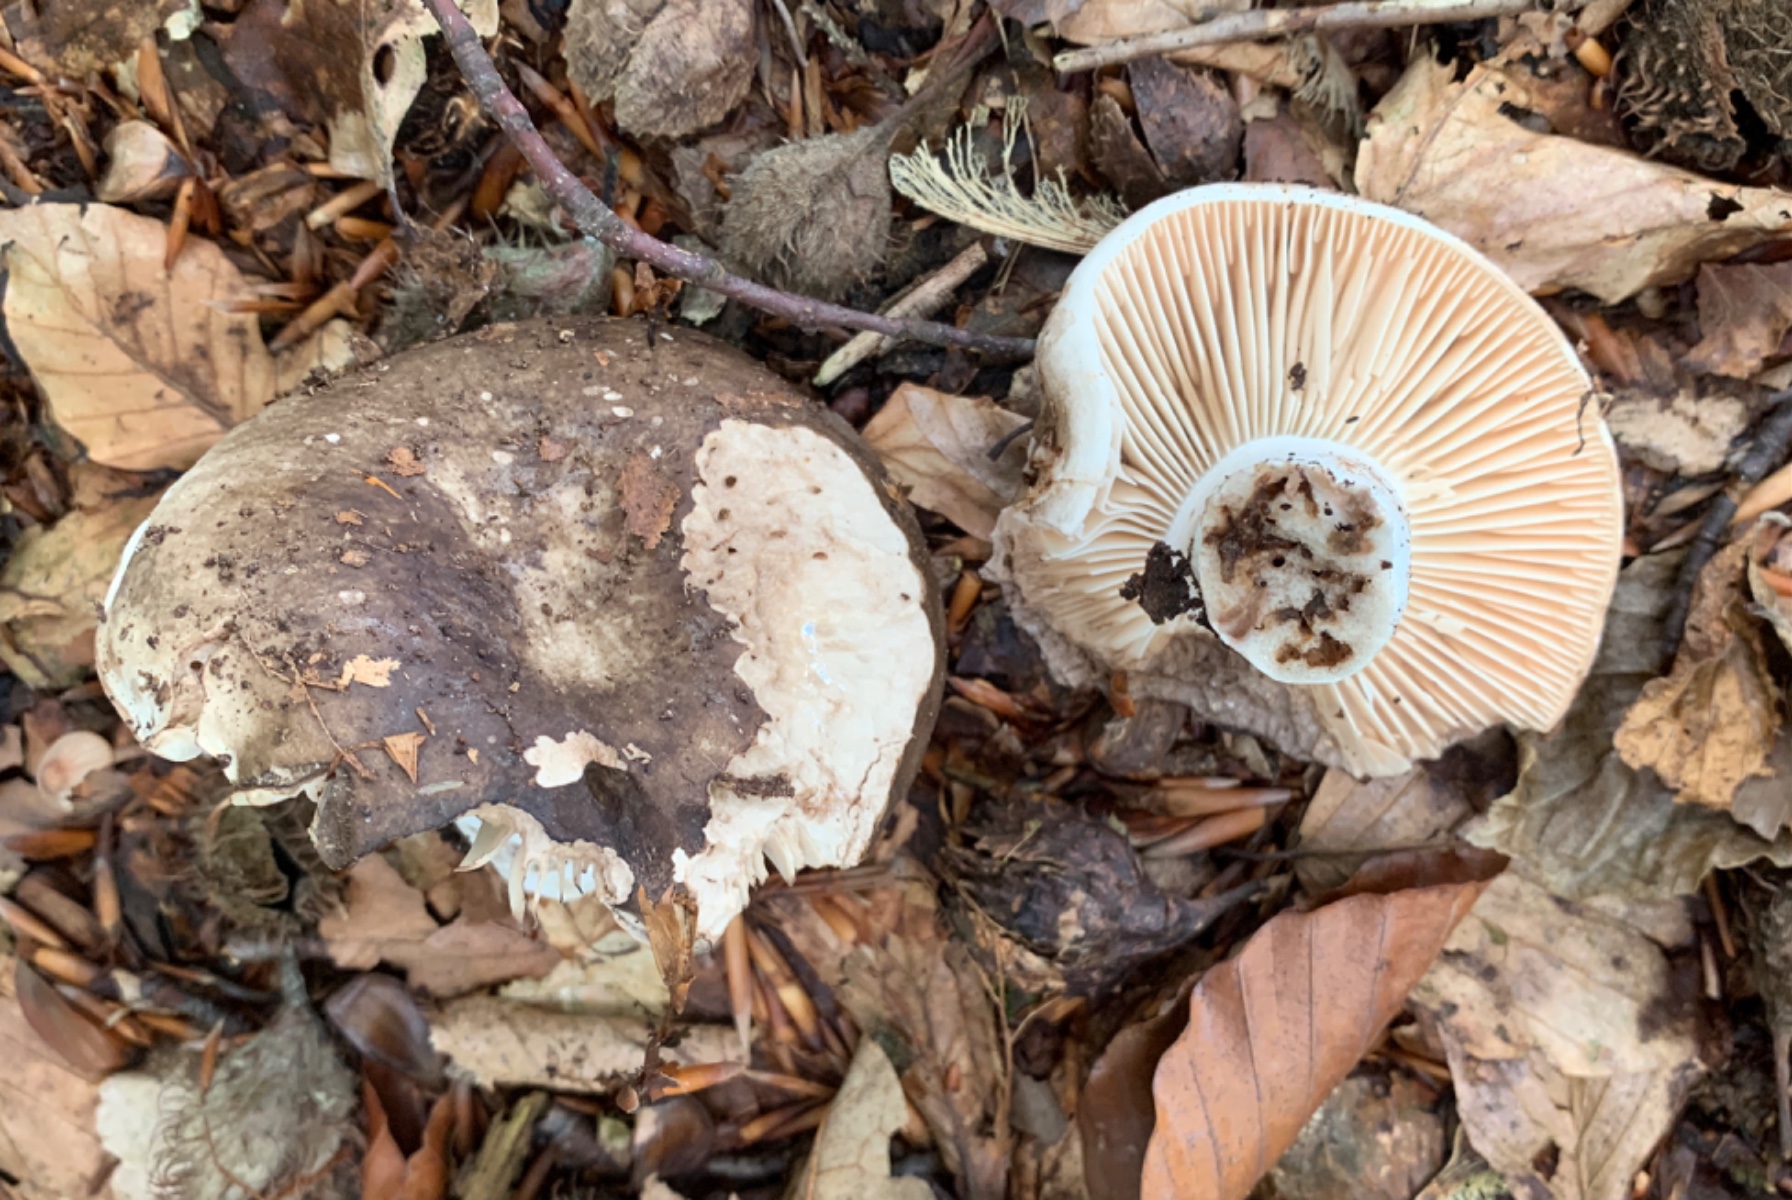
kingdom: Fungi
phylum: Basidiomycota
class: Agaricomycetes
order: Russulales
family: Russulaceae
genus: Russula
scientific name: Russula adusta
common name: sværtende skørhat
